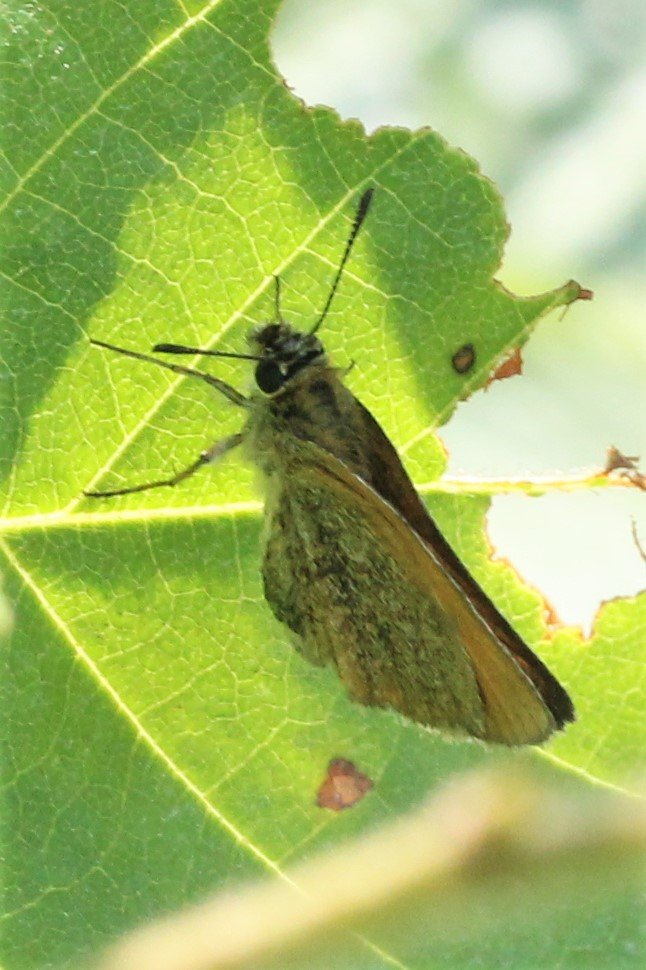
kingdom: Animalia
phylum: Arthropoda
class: Insecta
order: Lepidoptera
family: Hesperiidae
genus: Thymelicus
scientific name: Thymelicus lineola
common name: European Skipper
